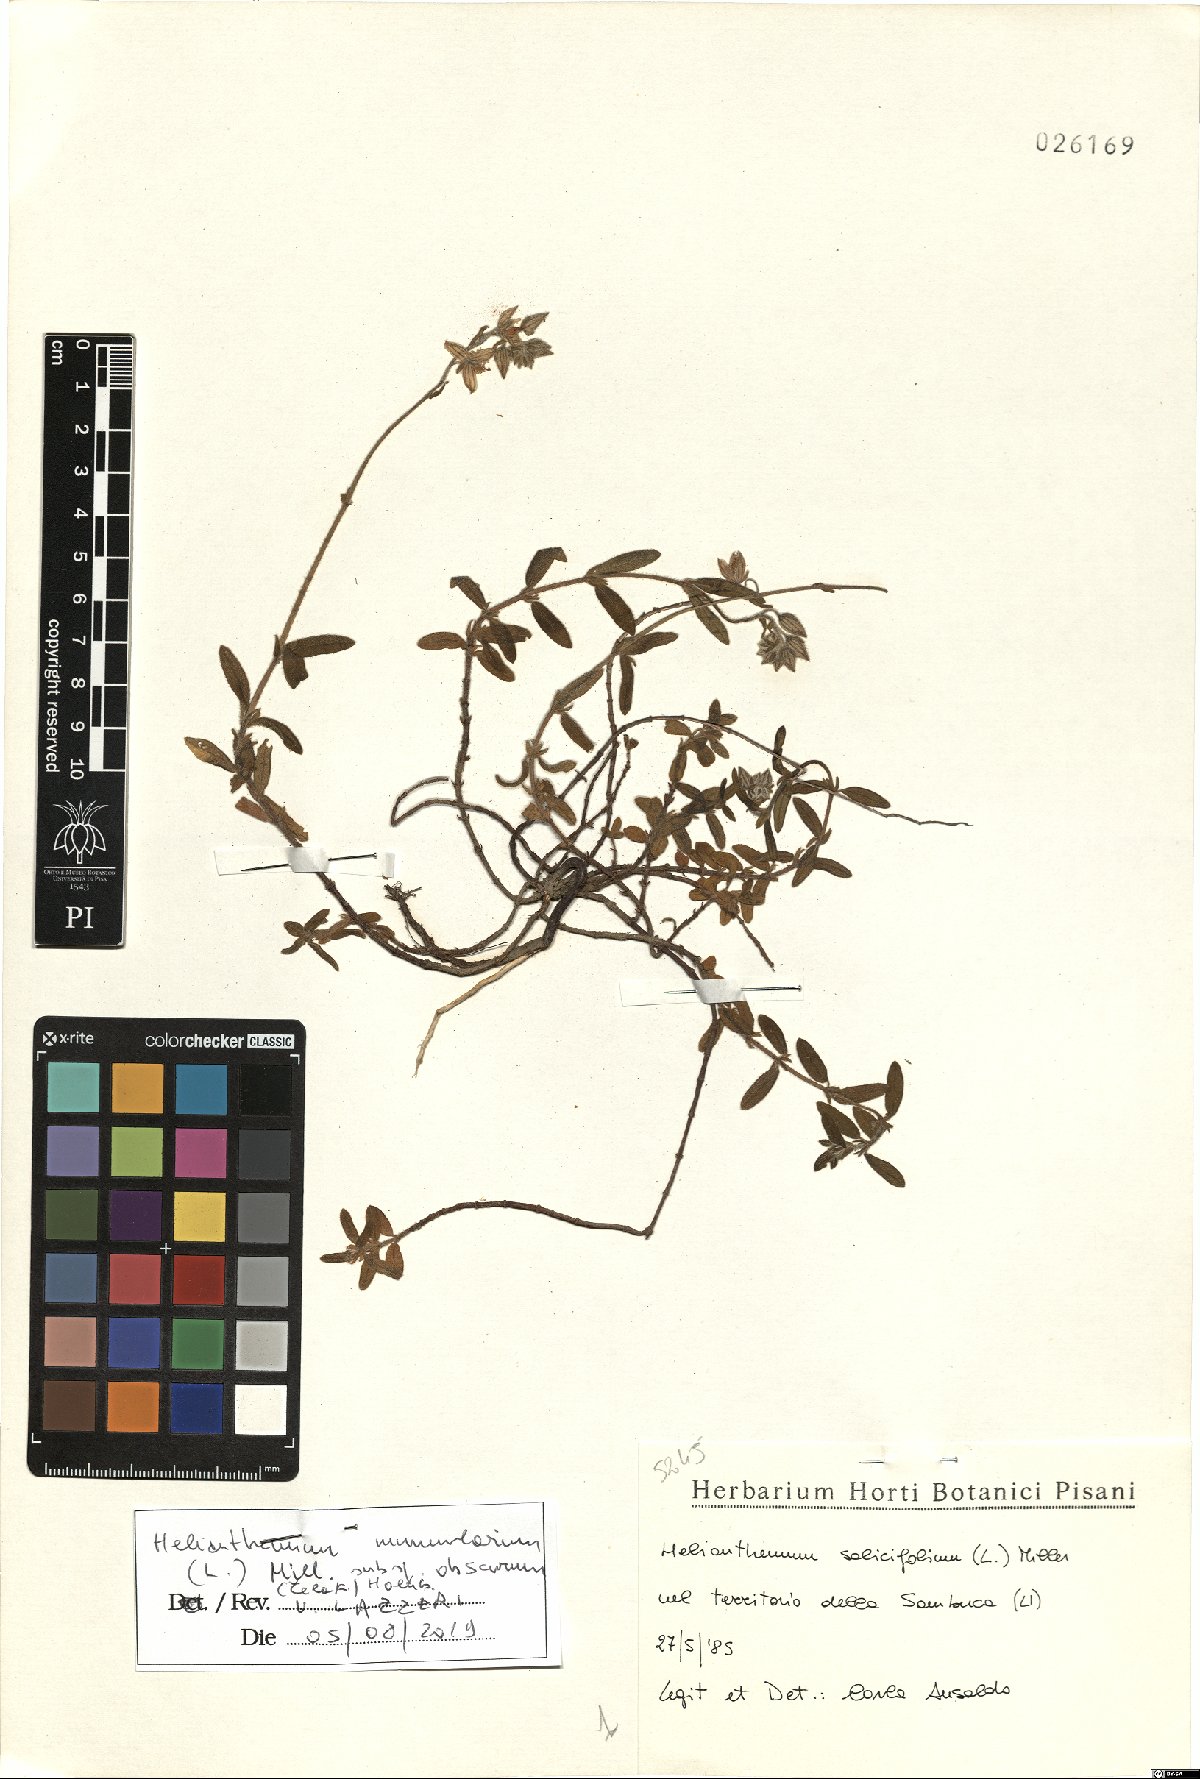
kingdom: Plantae
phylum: Tracheophyta
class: Magnoliopsida
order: Malvales
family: Cistaceae
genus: Helianthemum
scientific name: Helianthemum nummularium
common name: Common rock-rose
